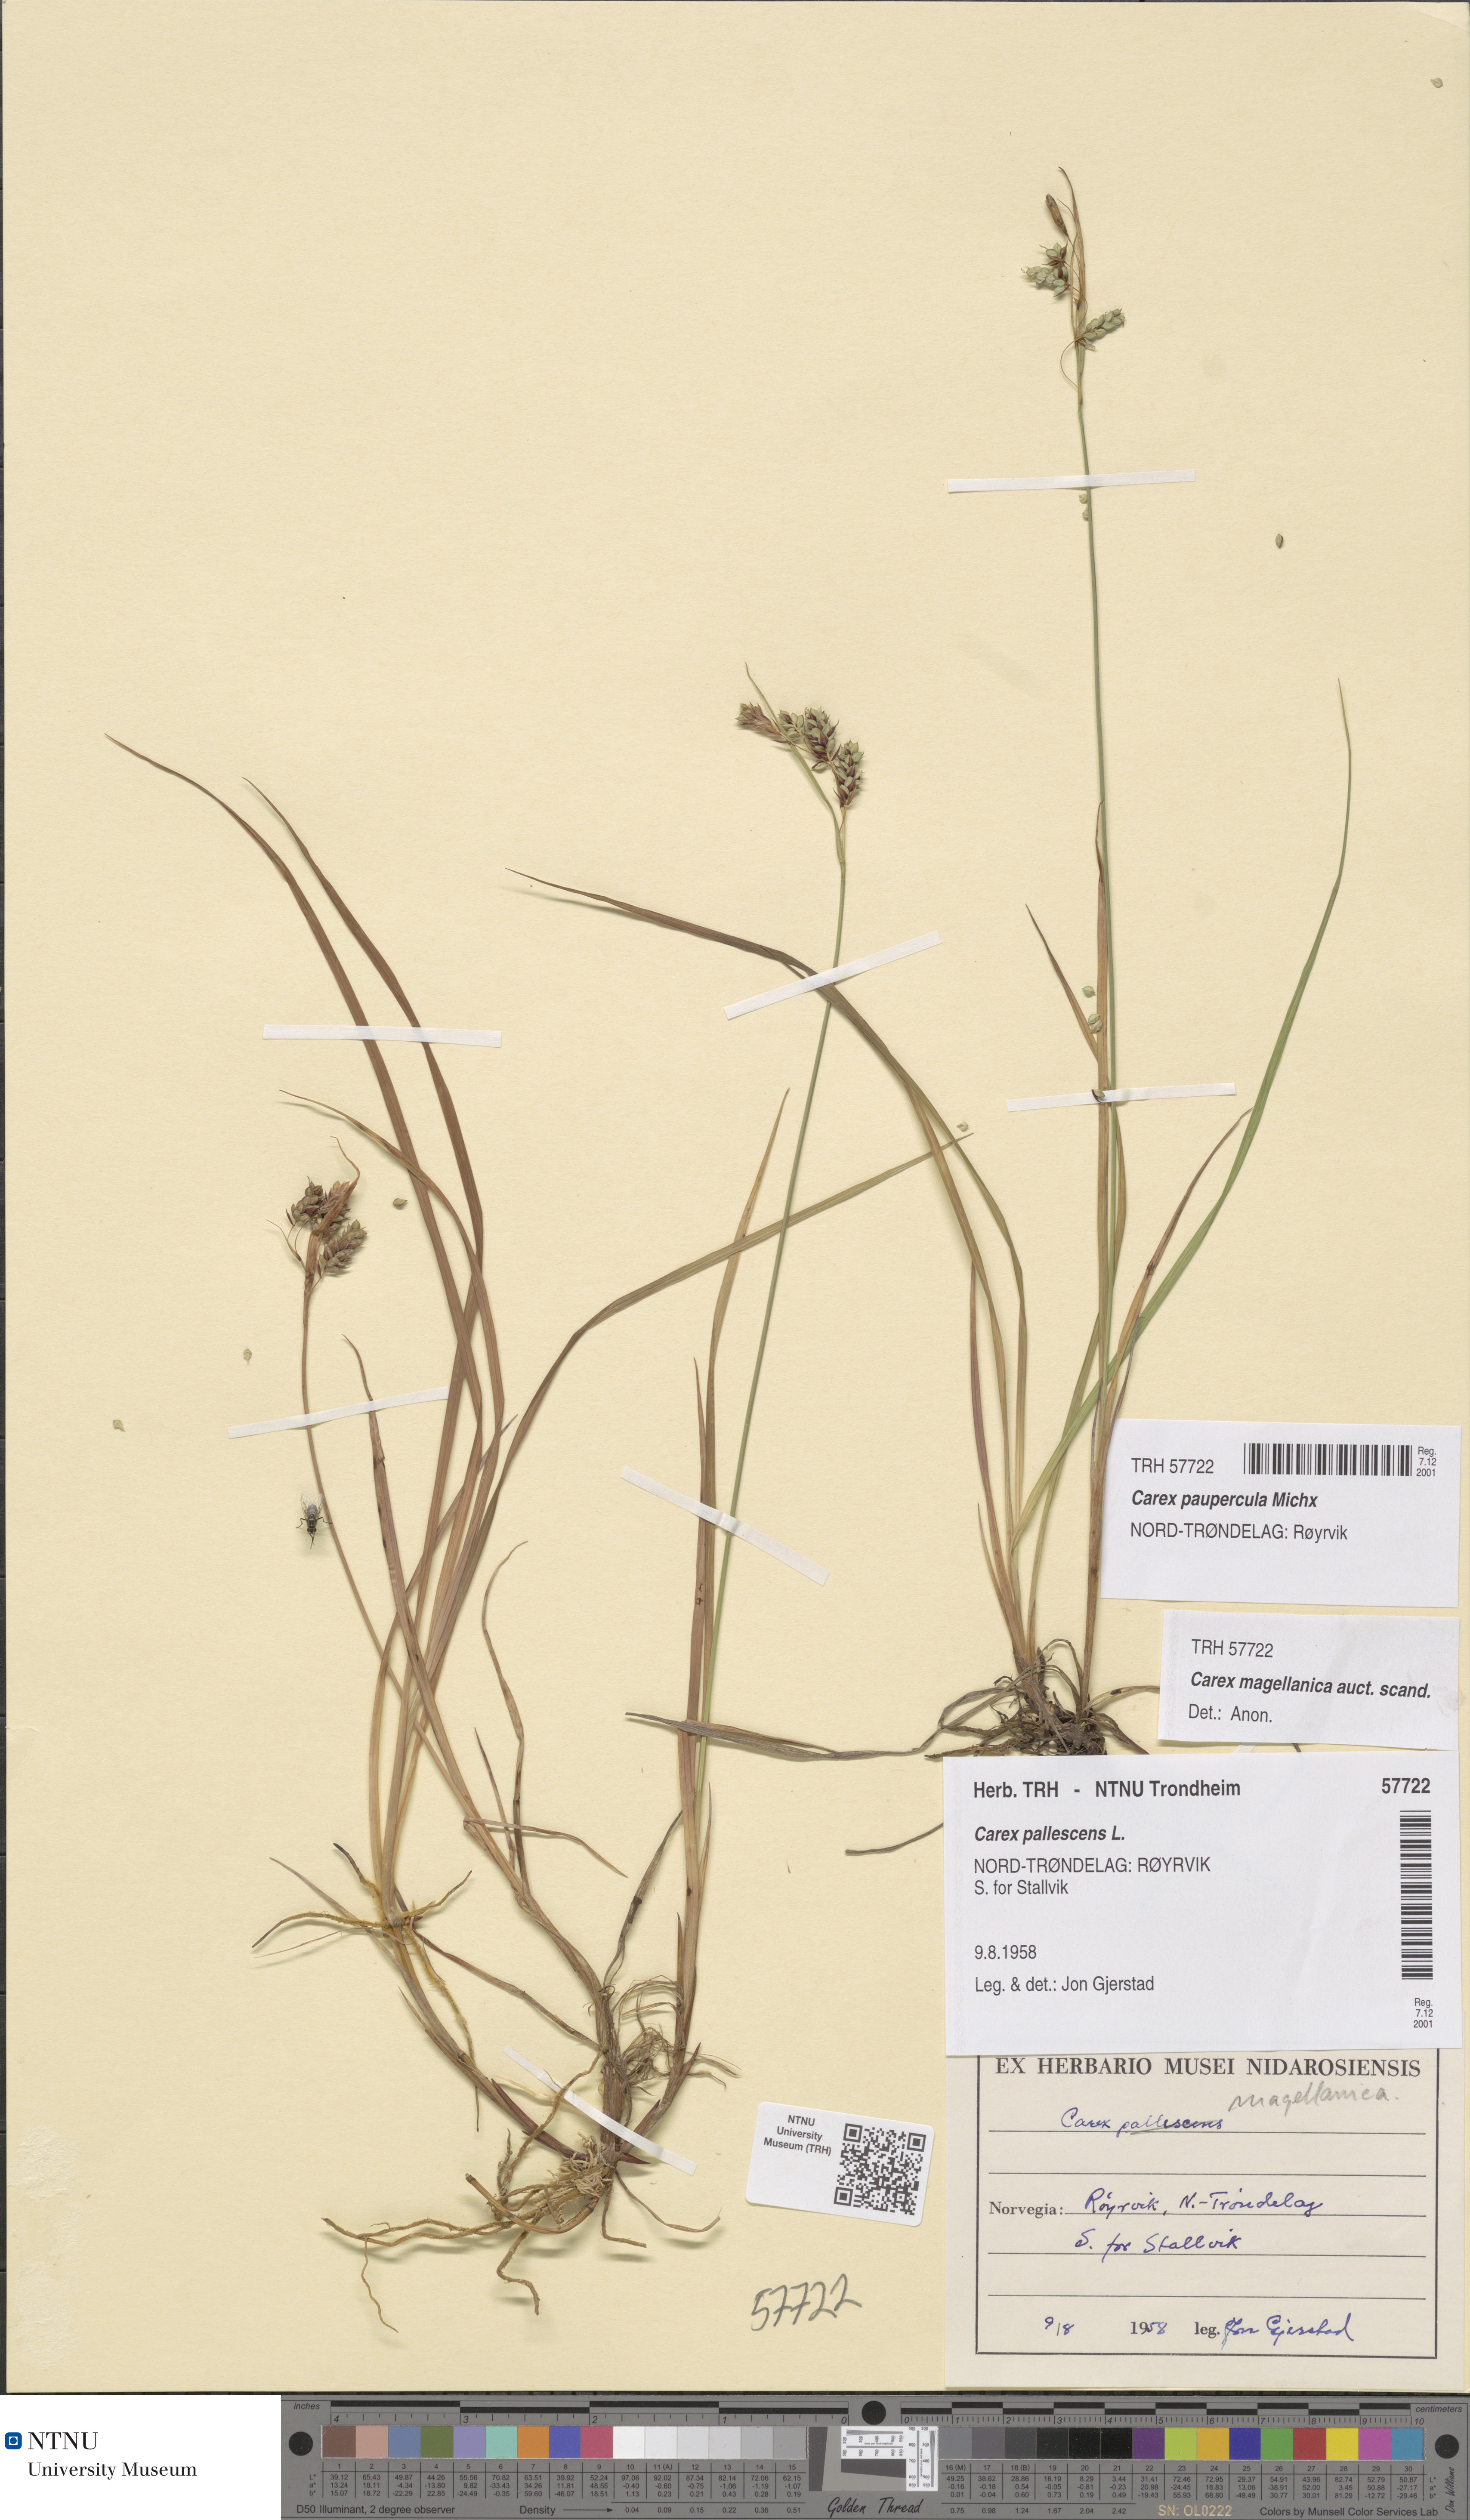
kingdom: Plantae
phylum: Tracheophyta
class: Liliopsida
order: Poales
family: Cyperaceae
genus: Carex
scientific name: Carex magellanica
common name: Bog sedge
